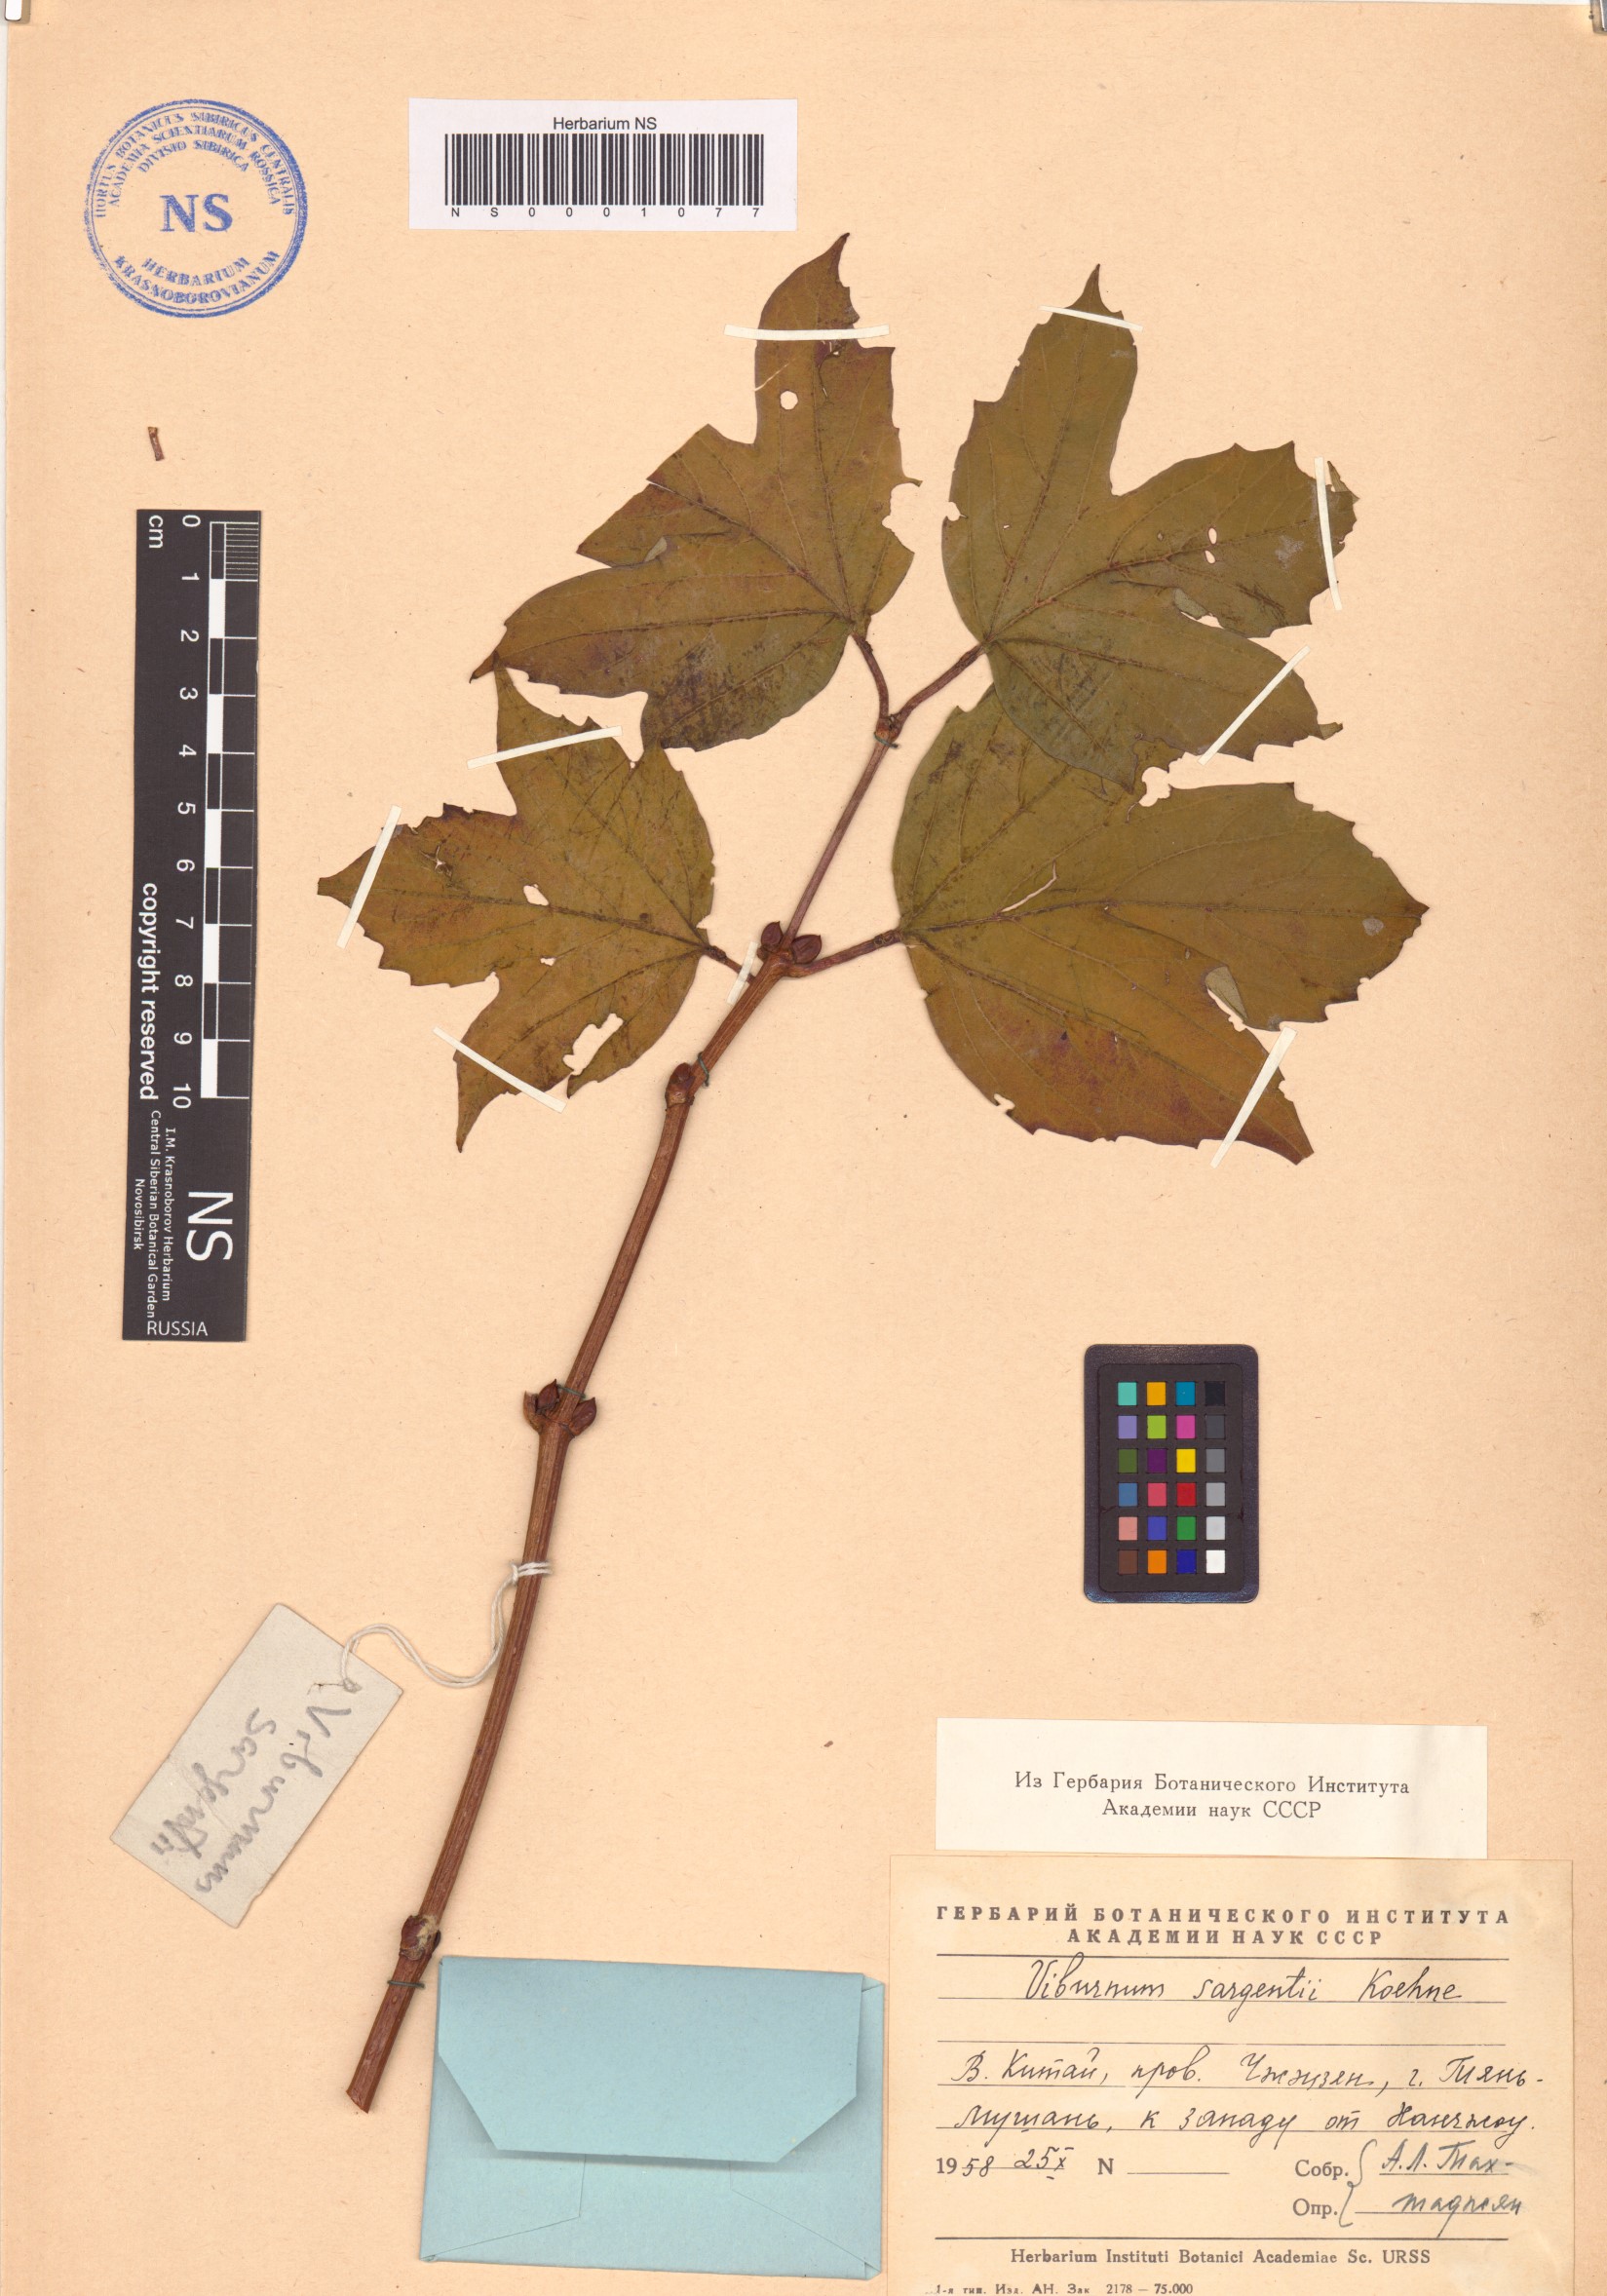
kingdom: Plantae
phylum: Tracheophyta
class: Magnoliopsida
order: Dipsacales
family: Viburnaceae
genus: Viburnum
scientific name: Viburnum sargentii
